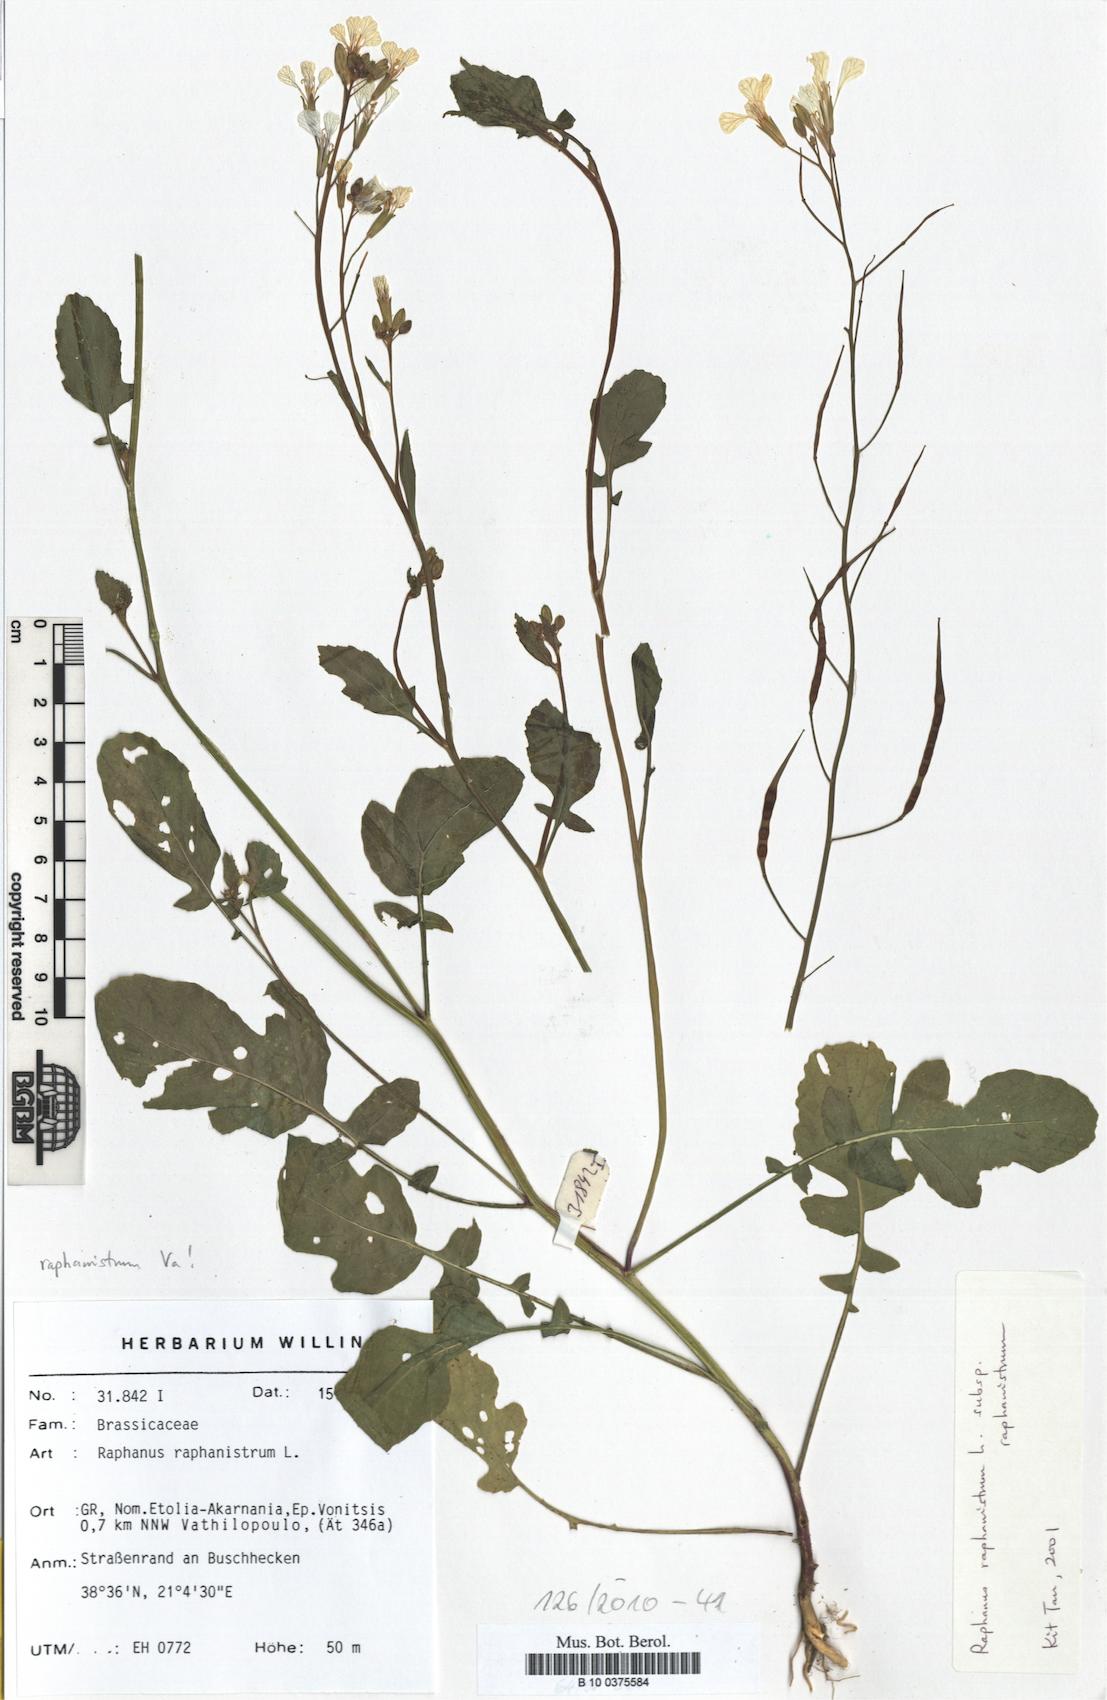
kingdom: Plantae
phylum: Tracheophyta
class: Magnoliopsida
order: Brassicales
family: Brassicaceae
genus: Raphanus
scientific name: Raphanus raphanistrum
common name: Wild radish
